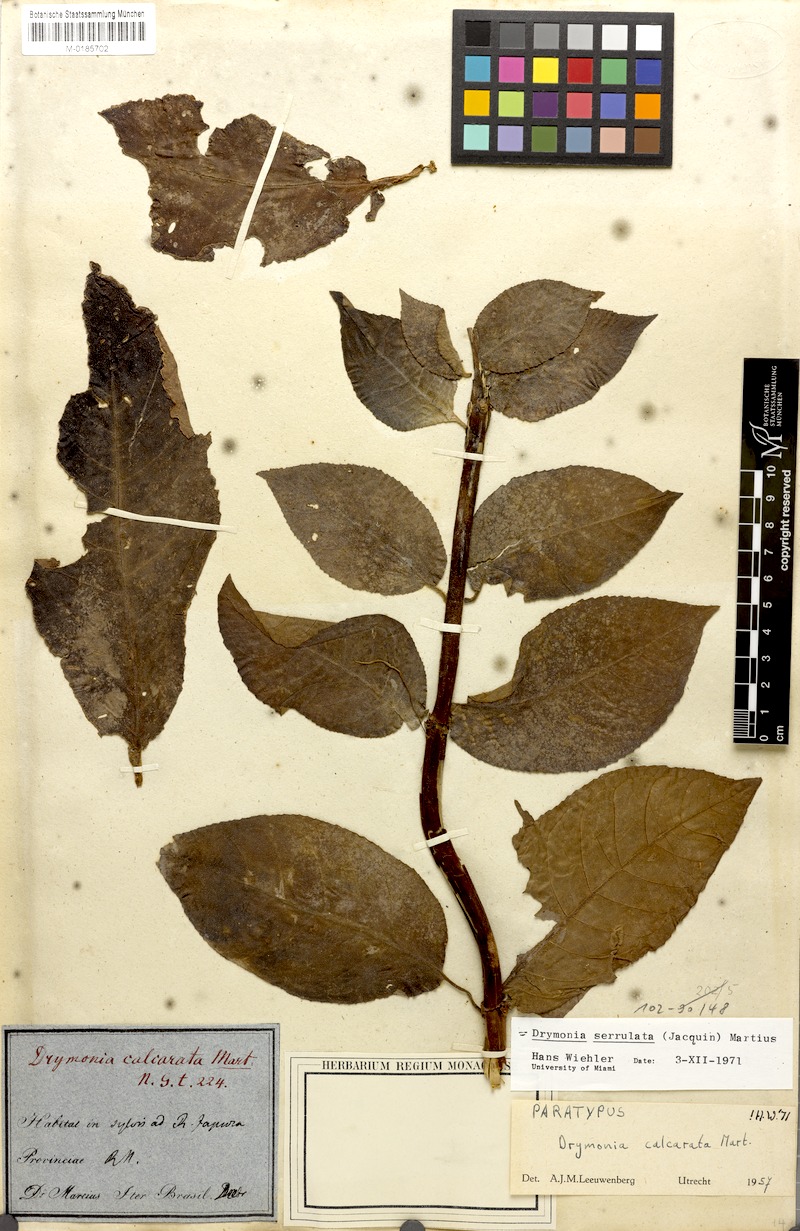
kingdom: Plantae
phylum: Tracheophyta
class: Magnoliopsida
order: Lamiales
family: Gesneriaceae
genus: Drymonia
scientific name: Drymonia serrulata
